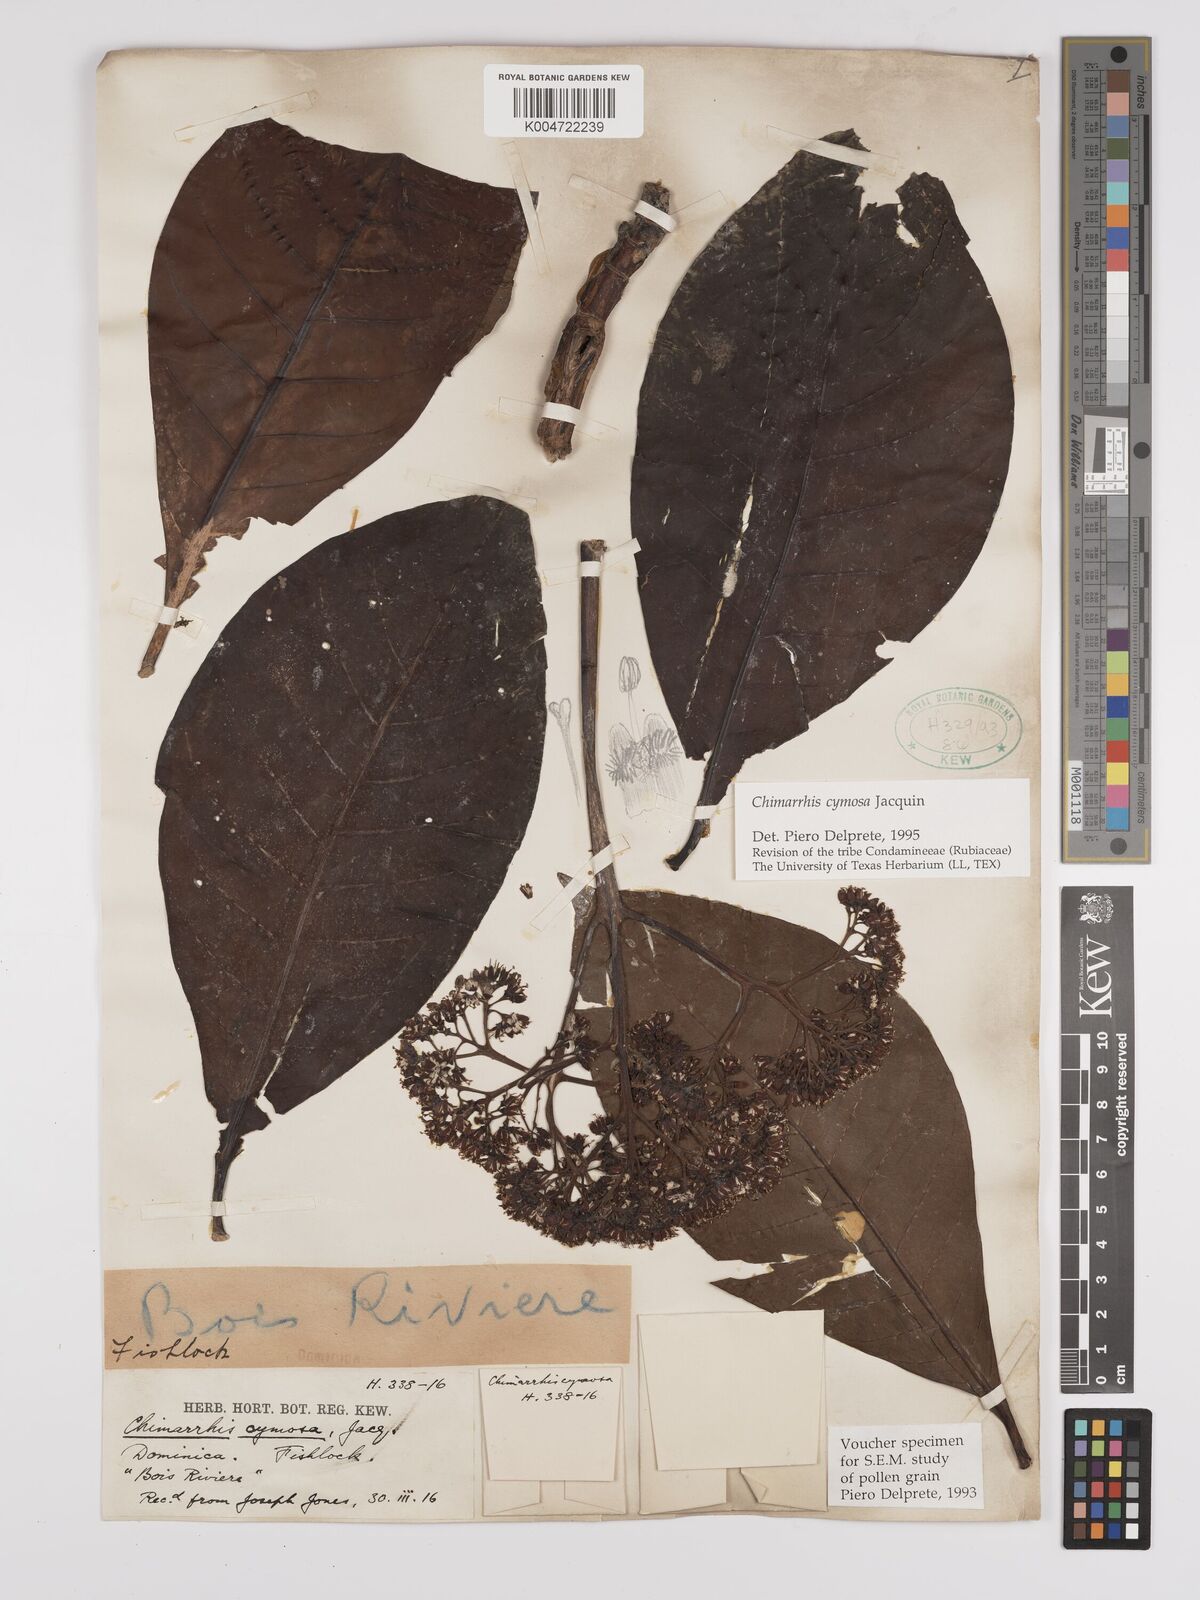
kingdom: Plantae
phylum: Tracheophyta
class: Magnoliopsida
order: Gentianales
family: Rubiaceae
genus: Chimarrhis
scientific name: Chimarrhis cymosa
